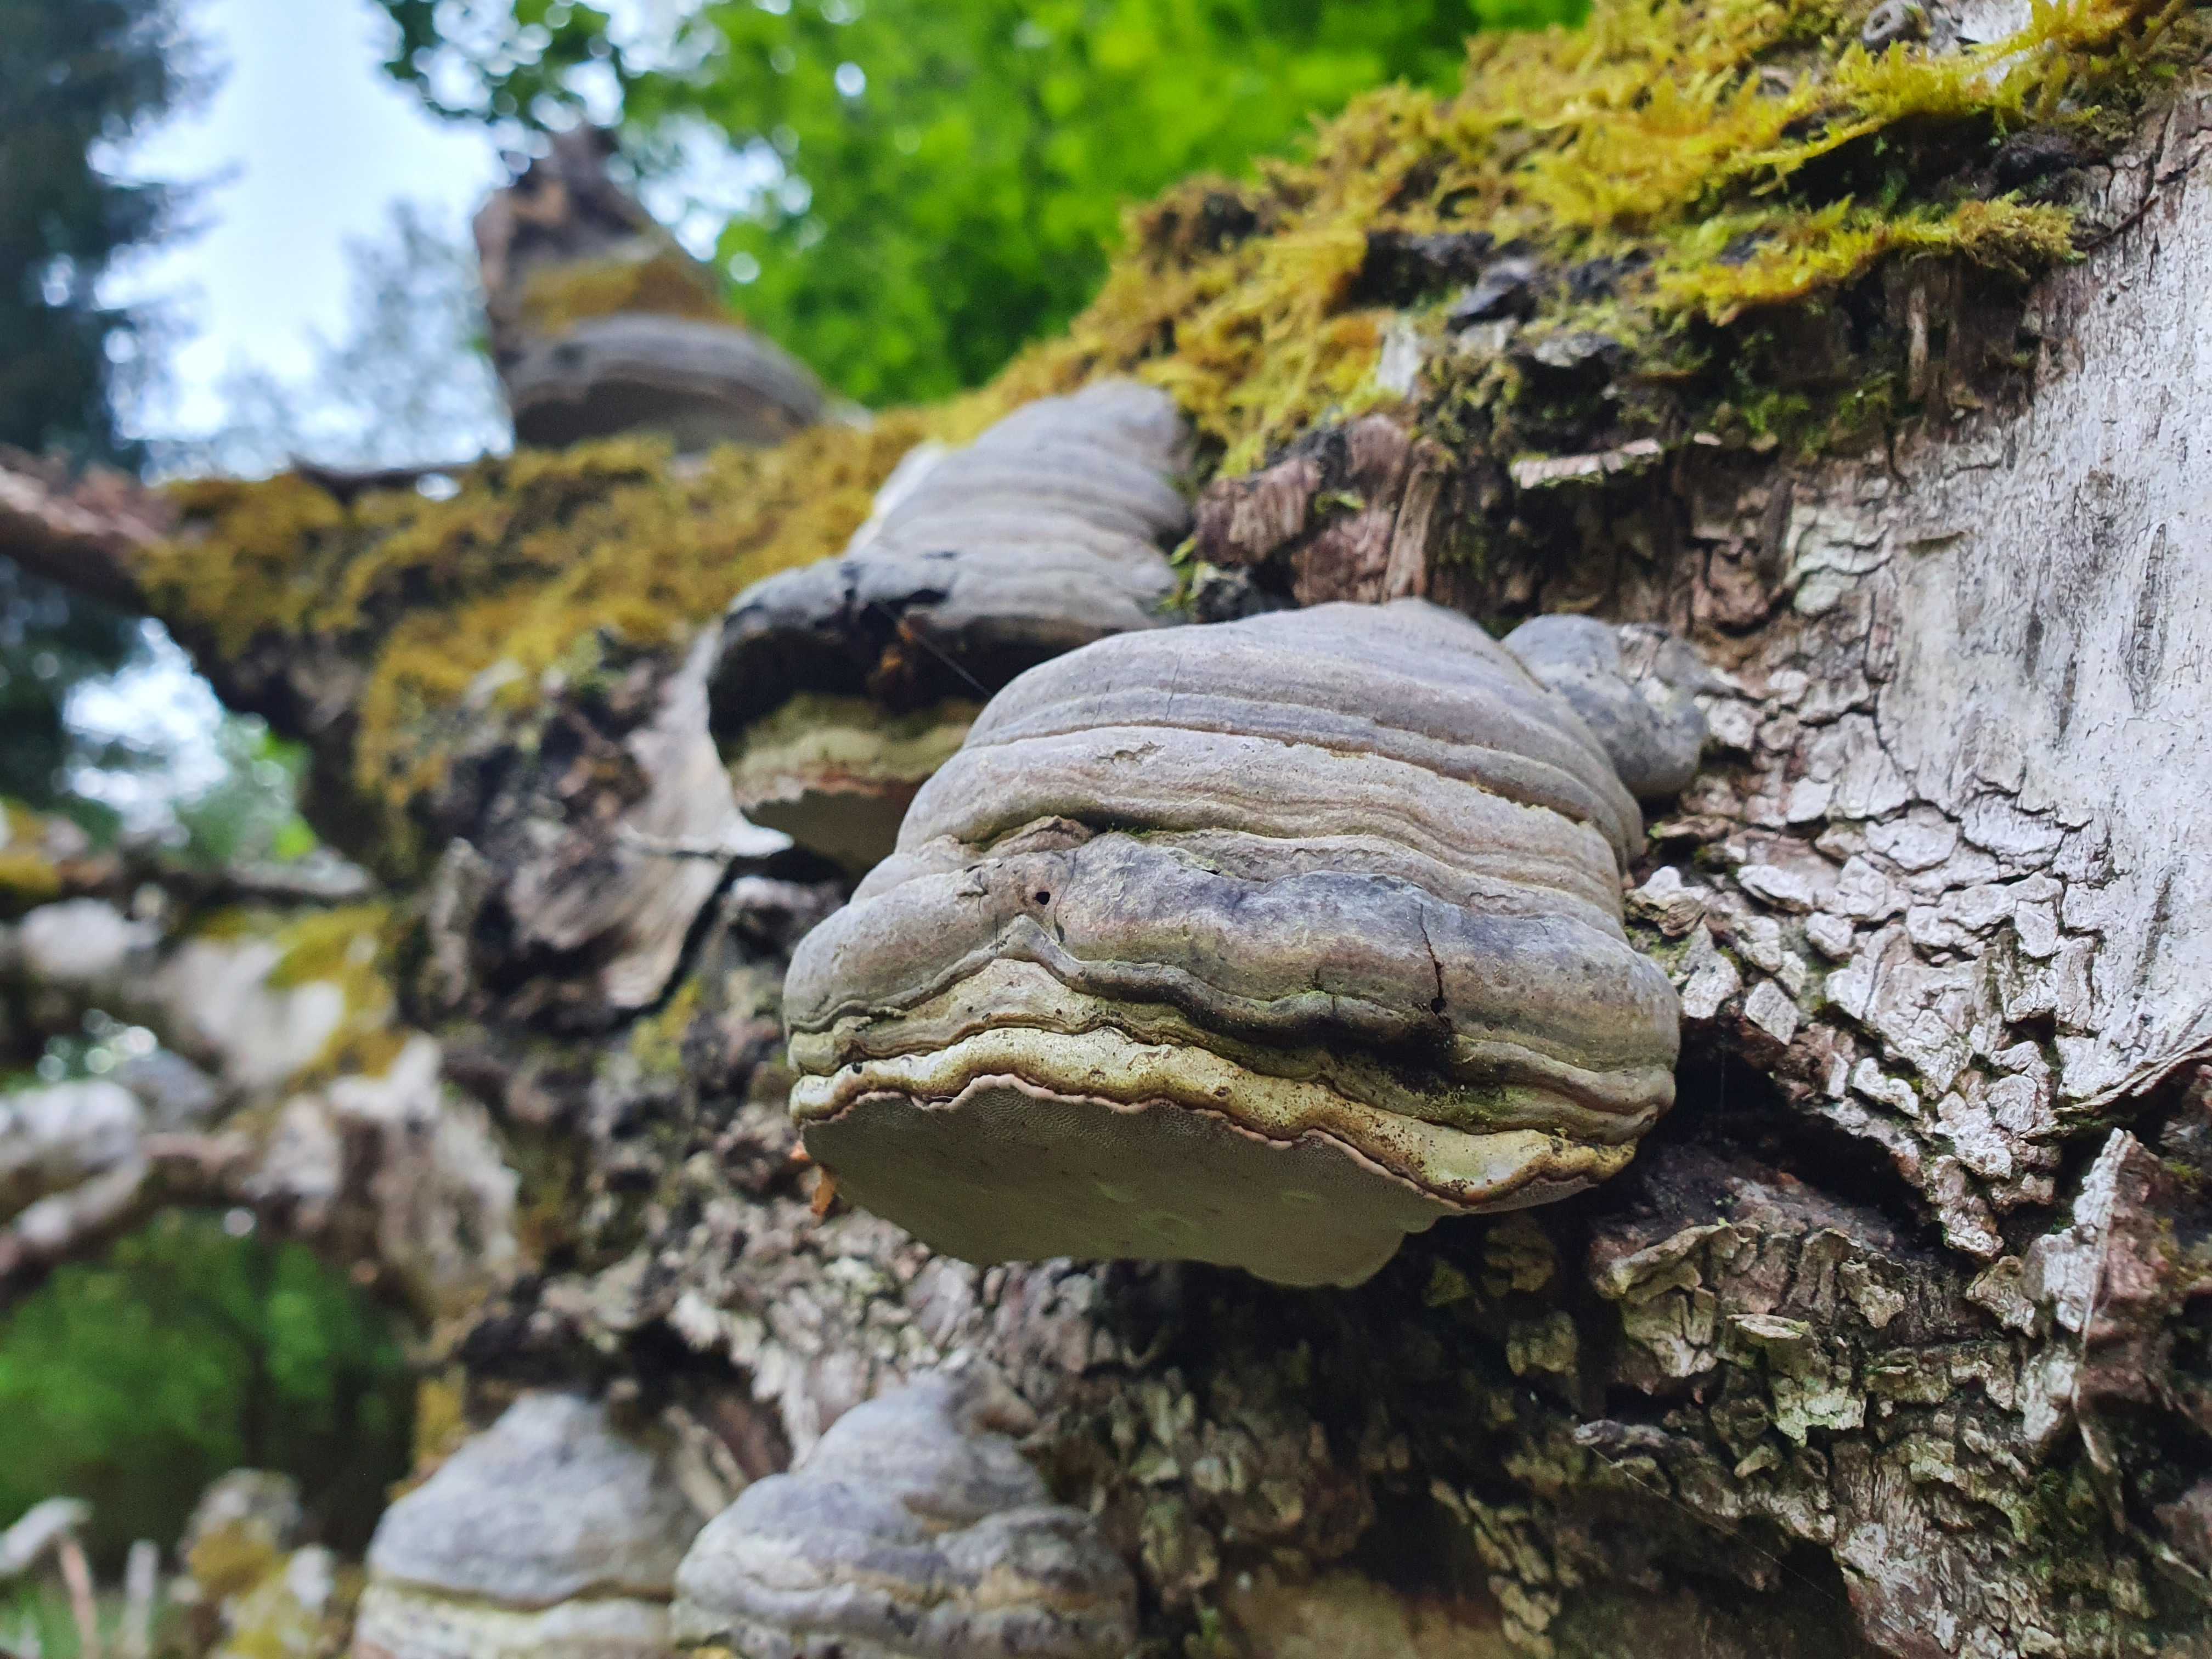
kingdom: Fungi
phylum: Basidiomycota
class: Agaricomycetes
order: Polyporales
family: Polyporaceae
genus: Fomes
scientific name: Fomes fomentarius
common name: tøndersvamp
